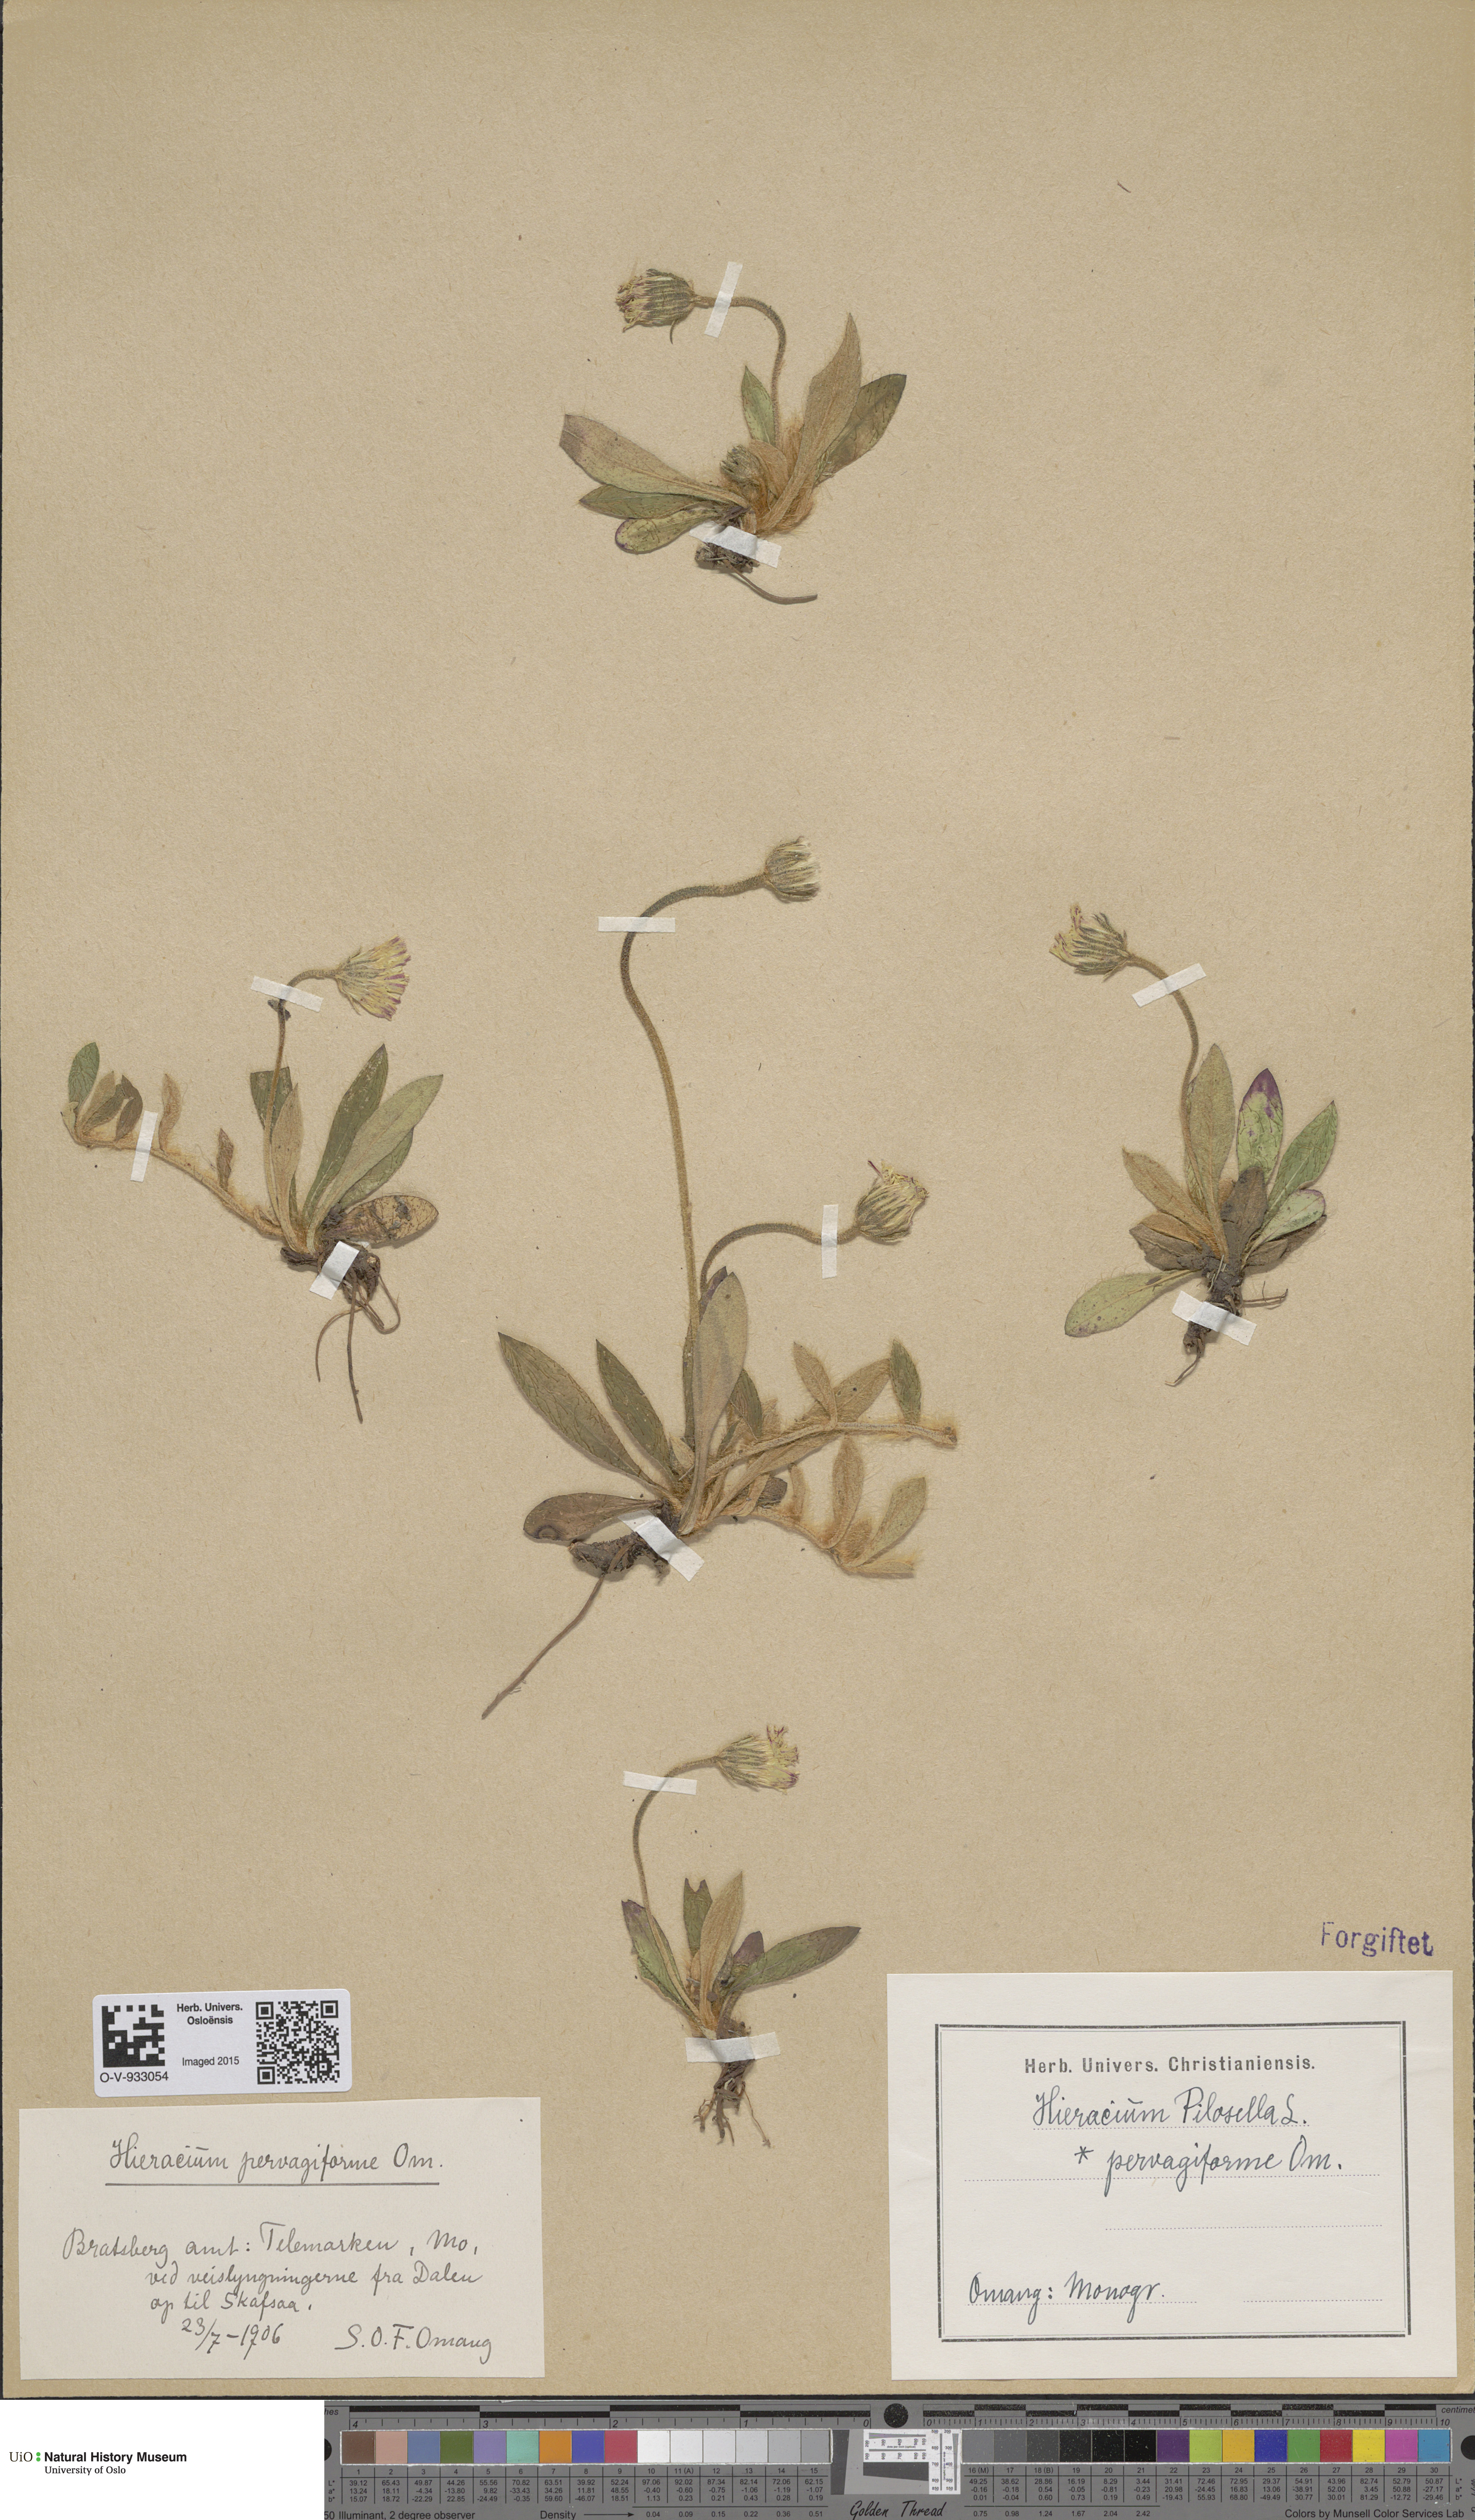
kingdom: Plantae
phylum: Tracheophyta
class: Magnoliopsida
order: Asterales
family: Asteraceae
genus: Pilosella
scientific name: Pilosella officinarum
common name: Mouse-ear hawkweed
